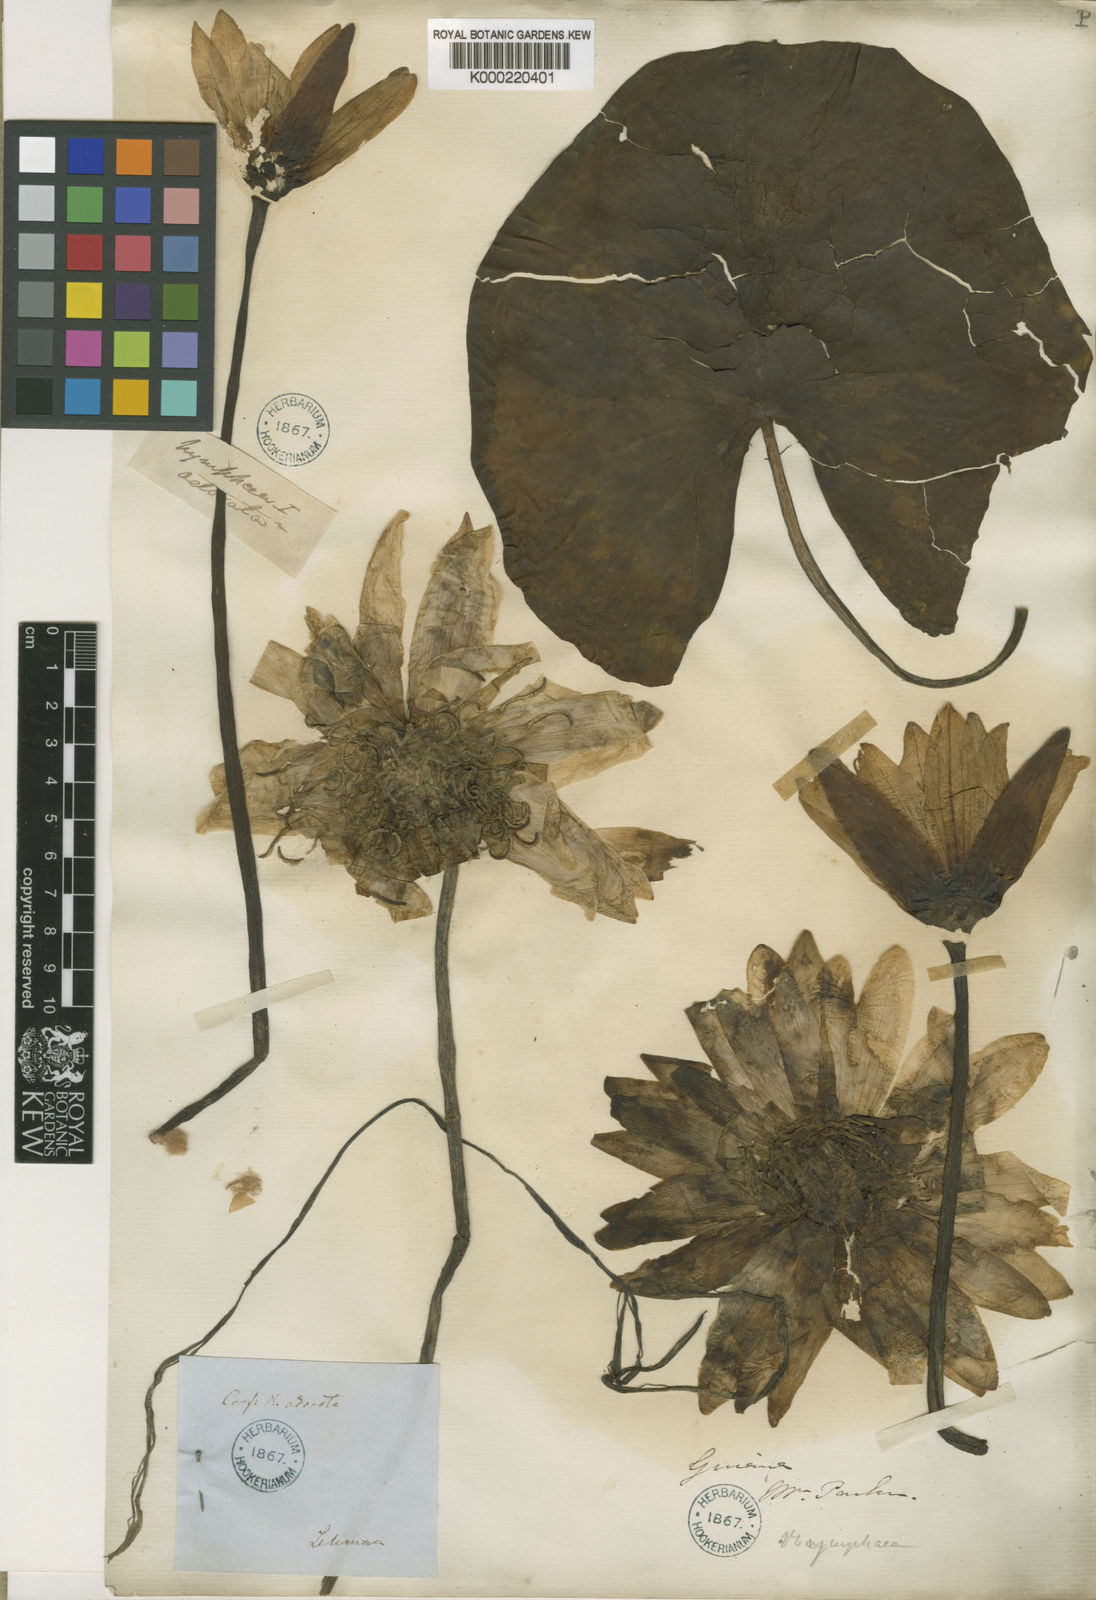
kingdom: Plantae
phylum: Tracheophyta
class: Magnoliopsida
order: Nymphaeales
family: Nymphaeaceae
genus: Nymphaea
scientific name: Nymphaea odorata
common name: Fragrant water-lily
